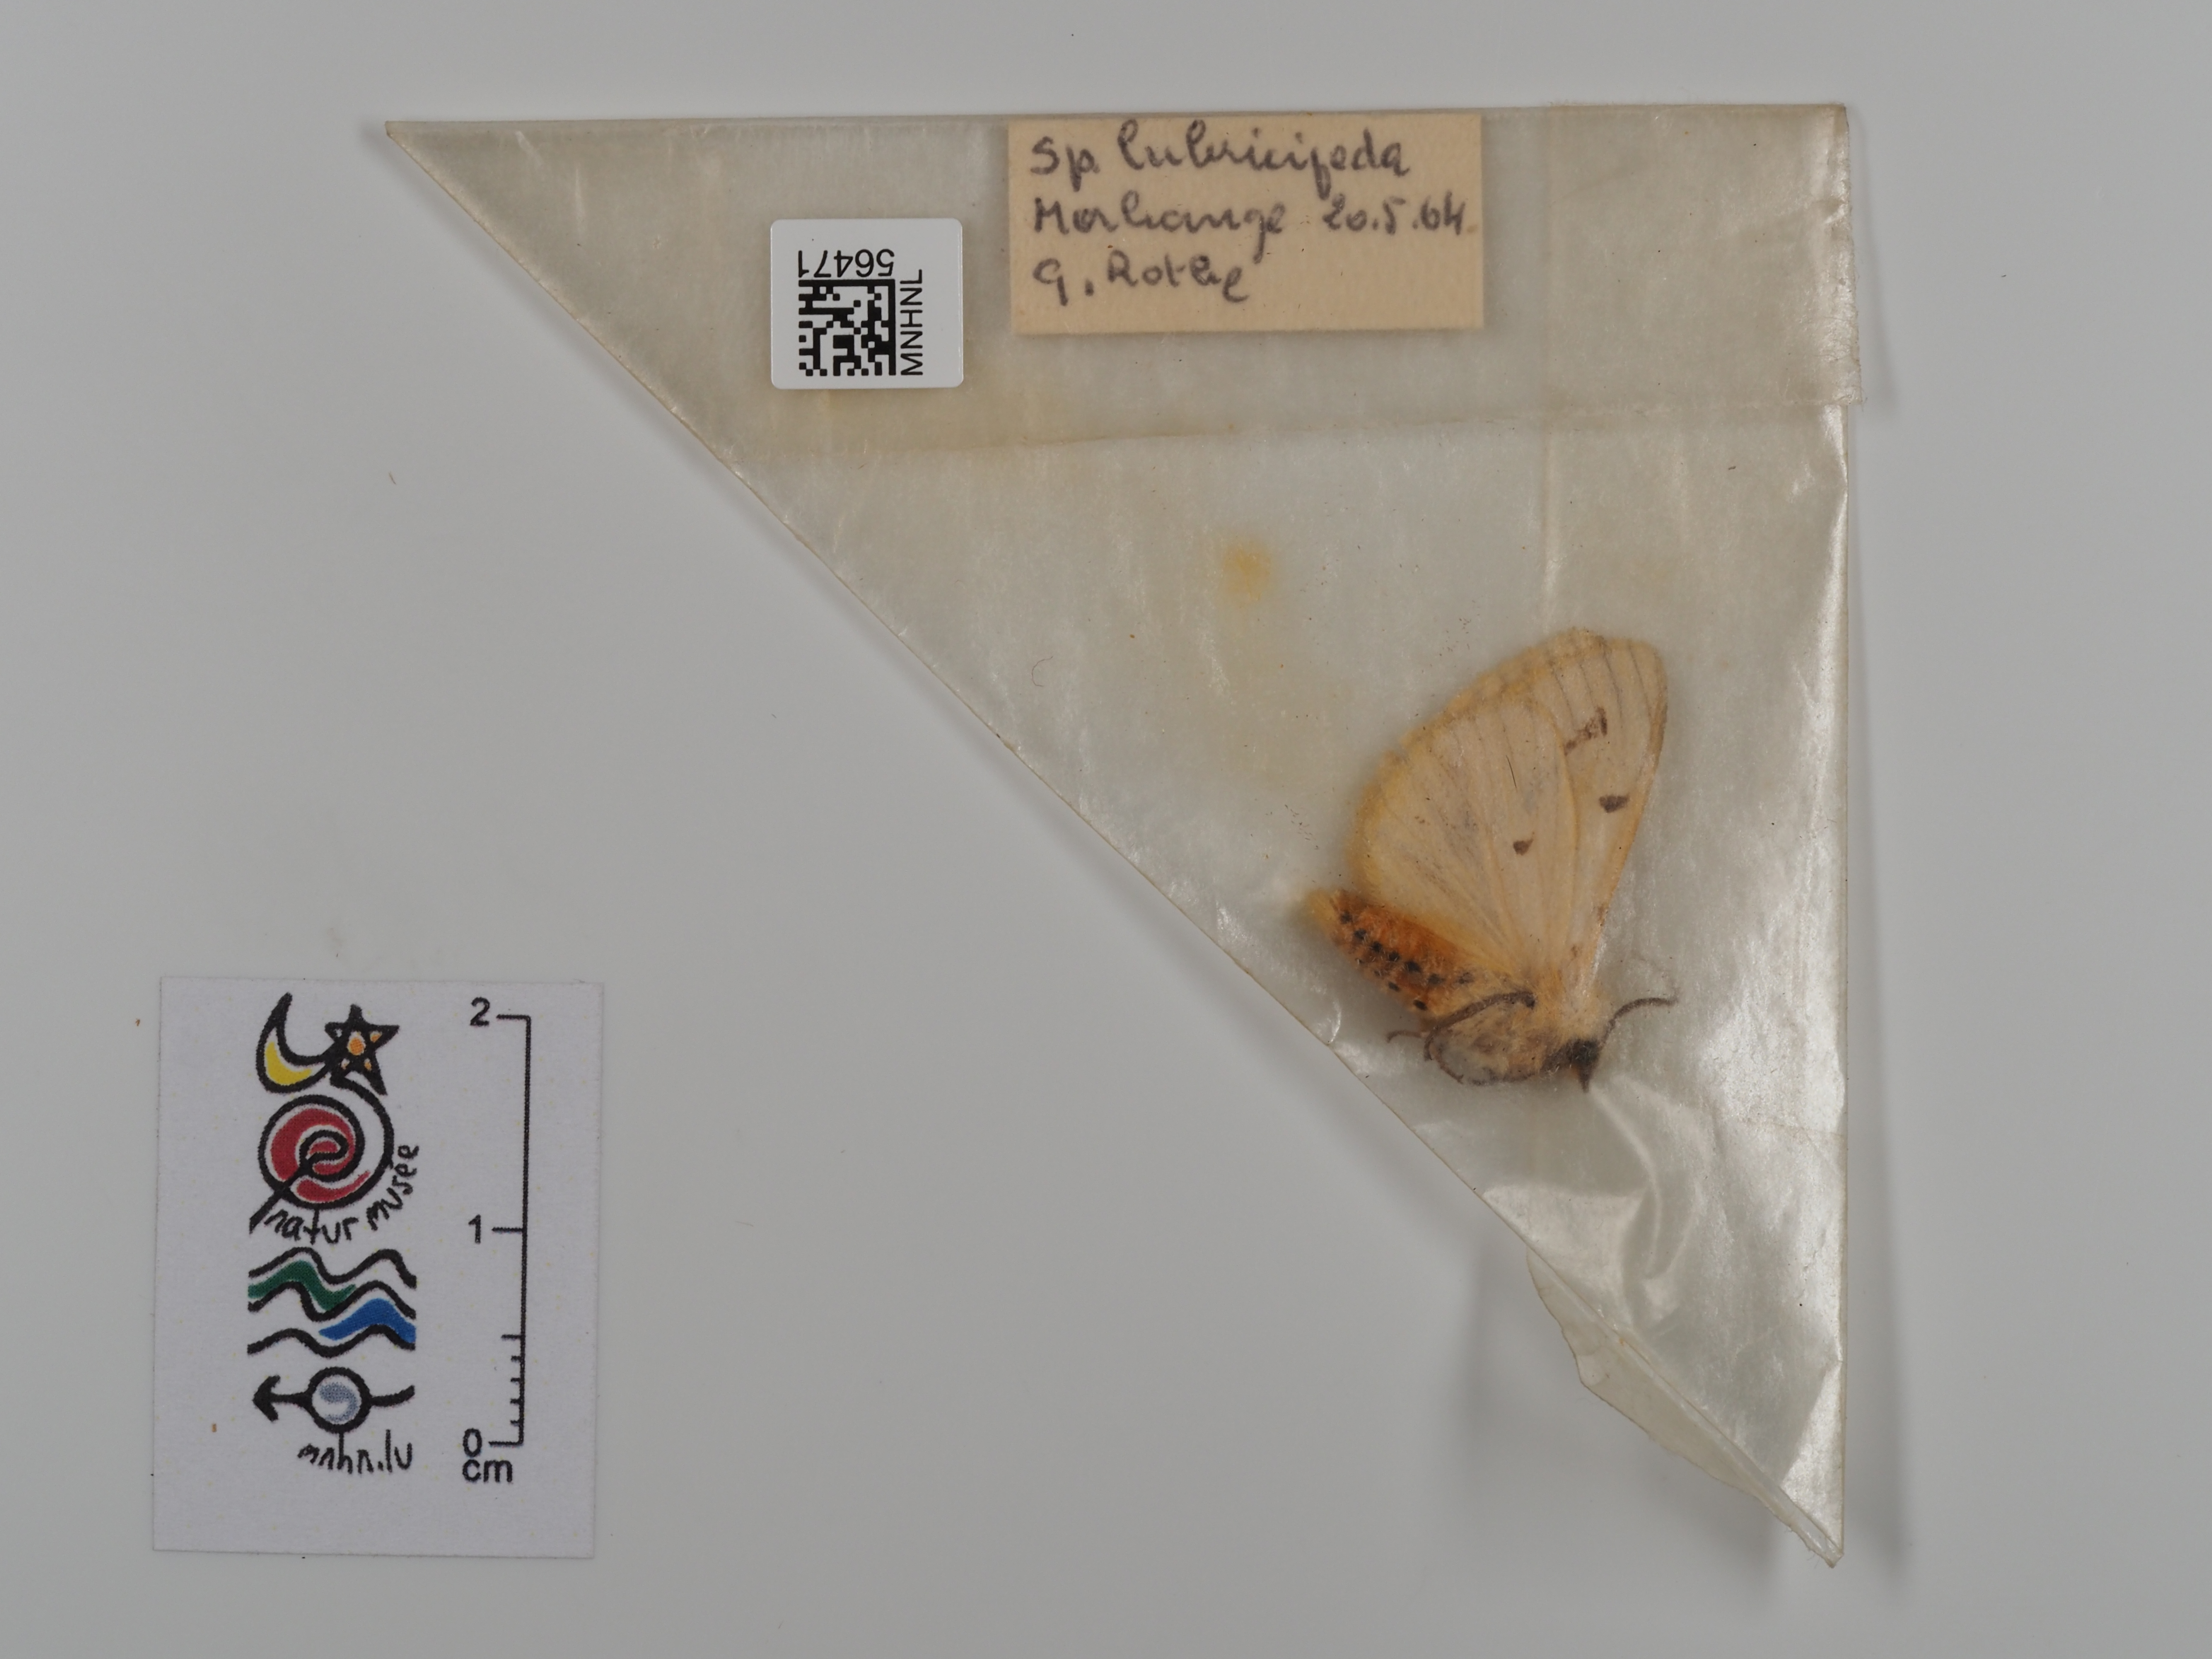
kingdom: Animalia
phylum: Arthropoda
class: Insecta
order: Lepidoptera
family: Erebidae
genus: Spilosoma
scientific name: Spilosoma lubricipeda
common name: White ermine
